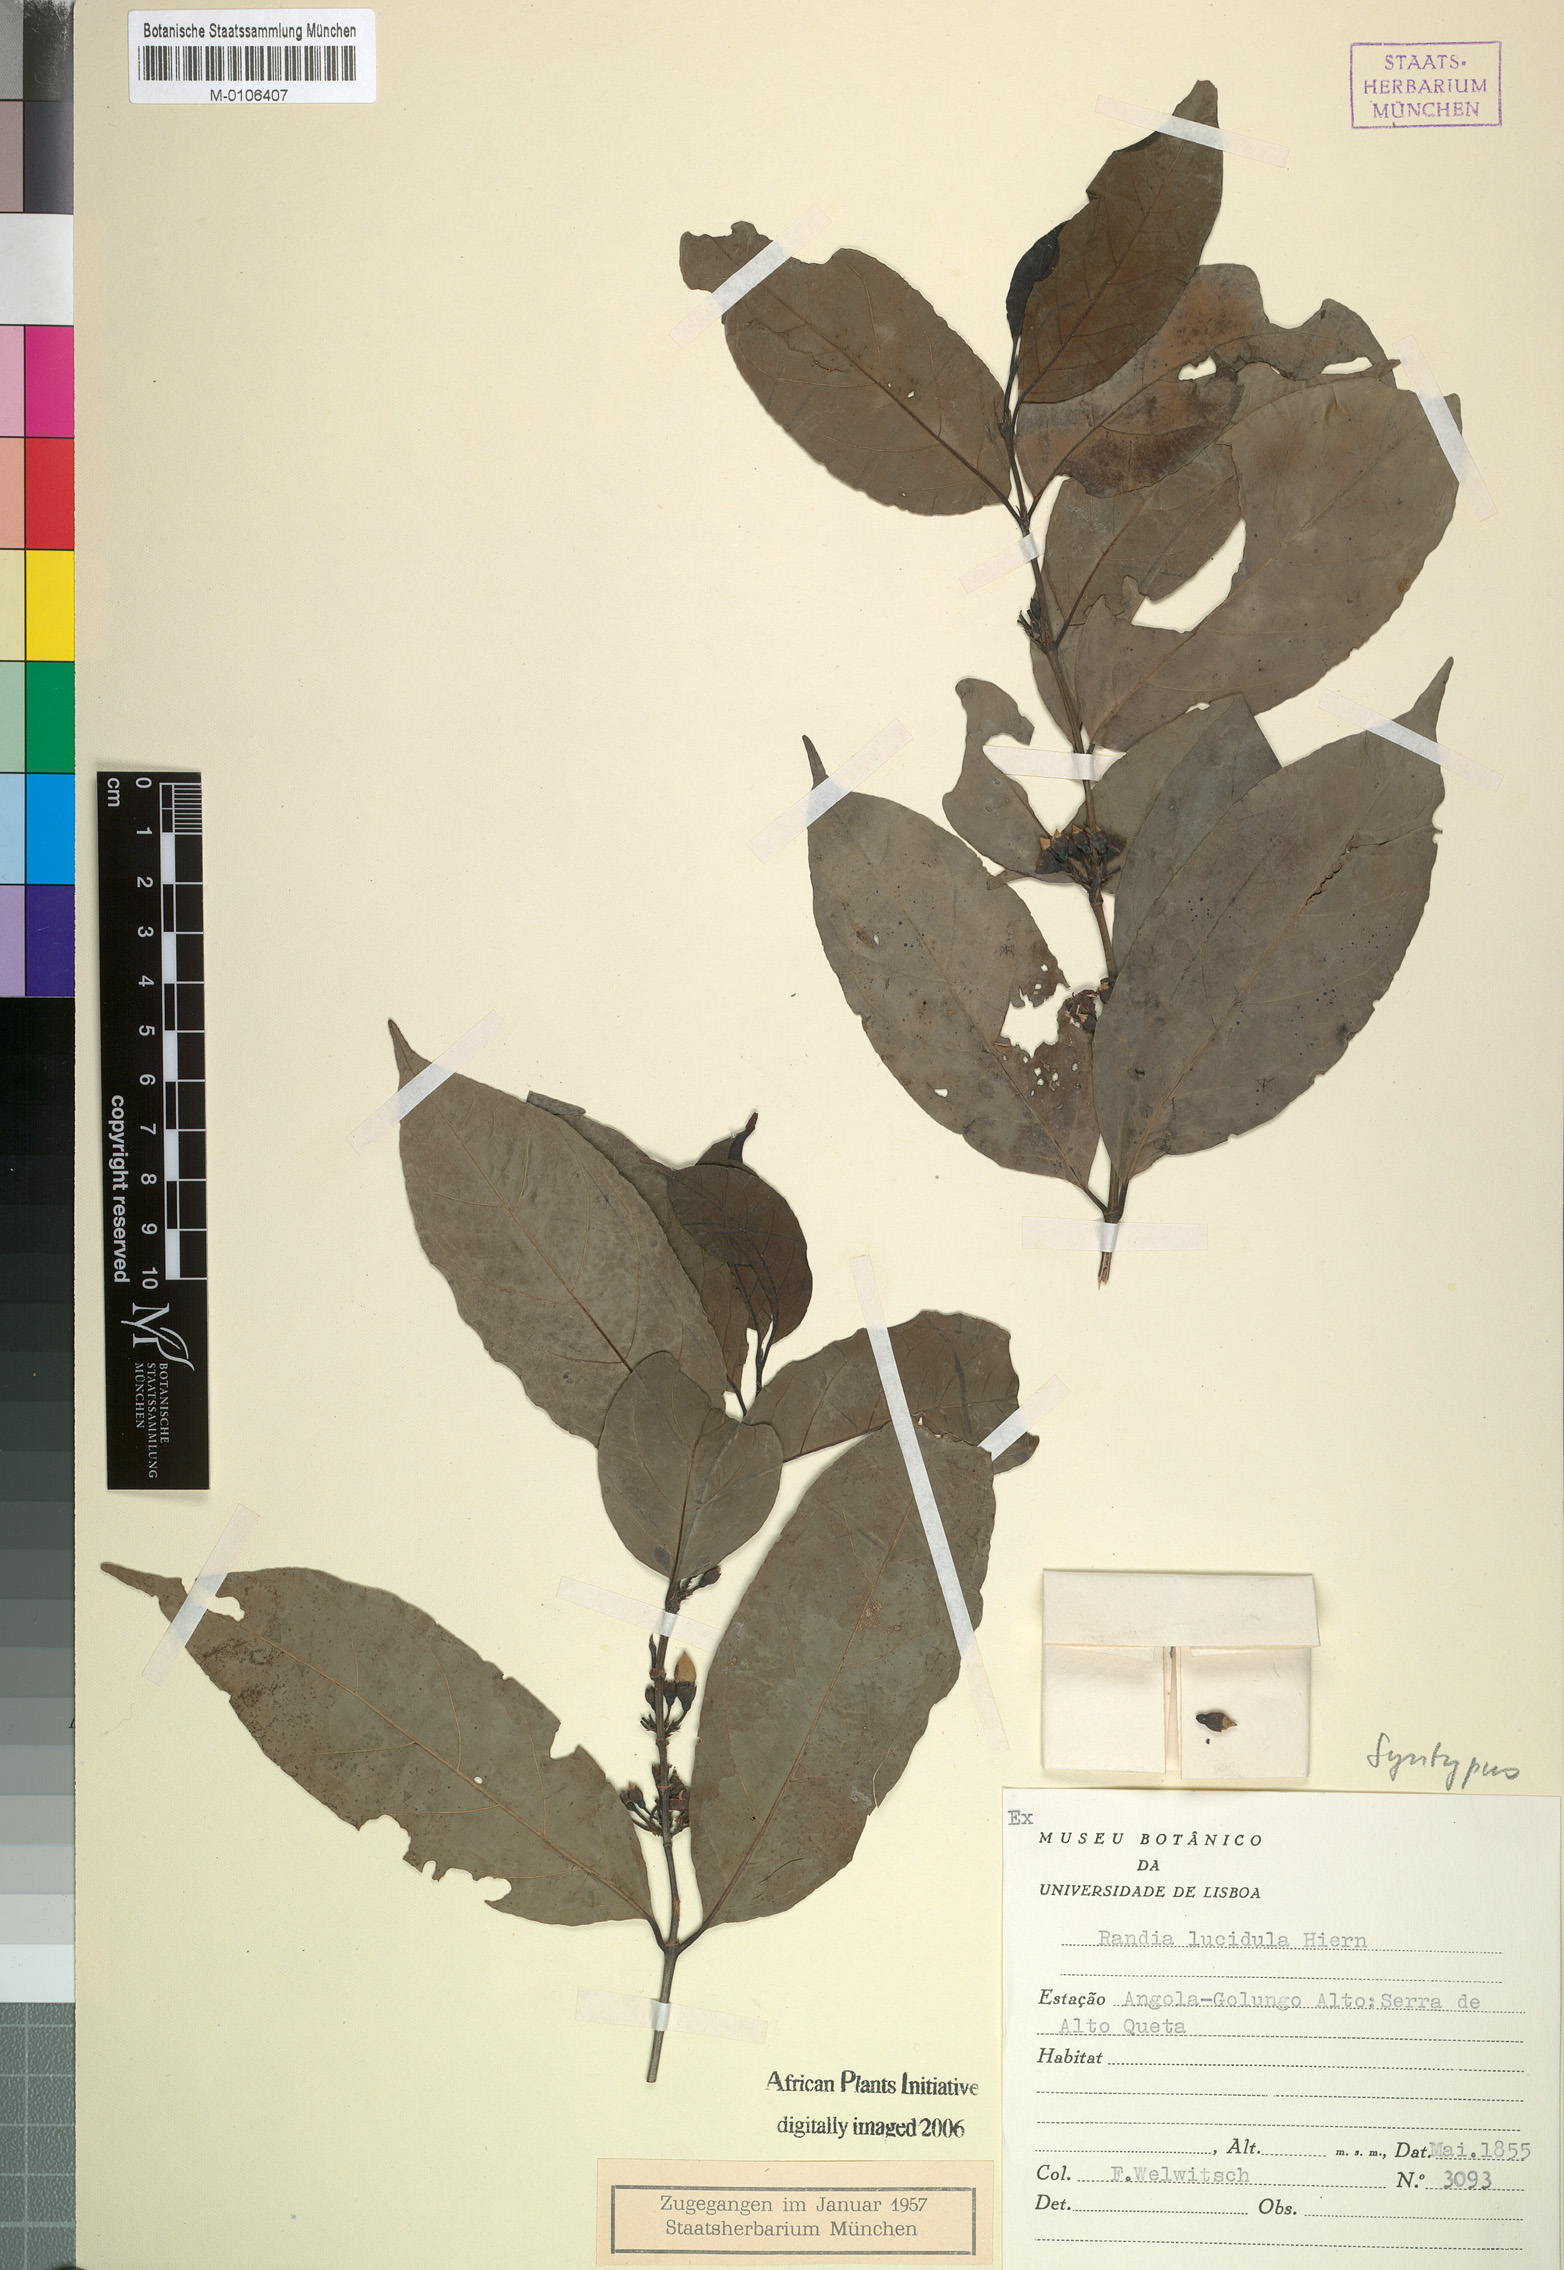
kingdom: Plantae
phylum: Tracheophyta
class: Magnoliopsida
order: Gentianales
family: Rubiaceae
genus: Aidia
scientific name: Aidia micrantha
